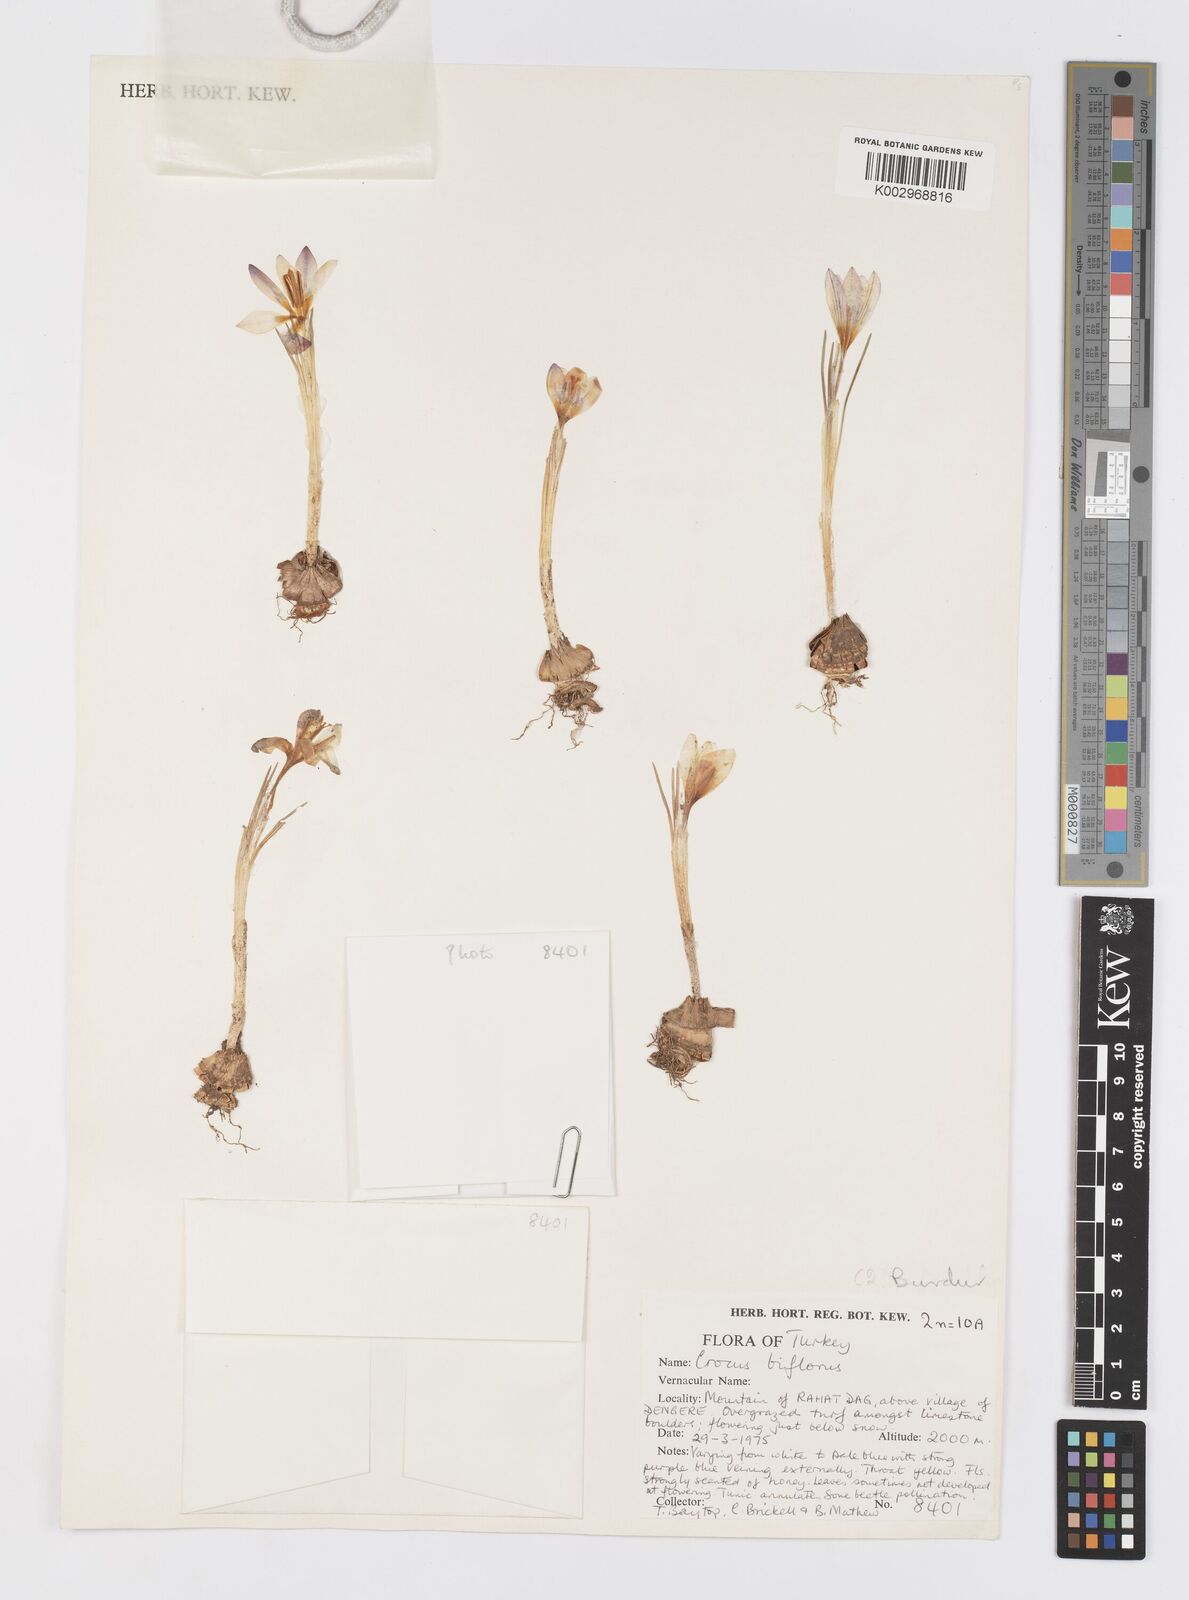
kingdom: Plantae
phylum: Tracheophyta
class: Liliopsida
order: Asparagales
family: Iridaceae
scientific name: Iridaceae
